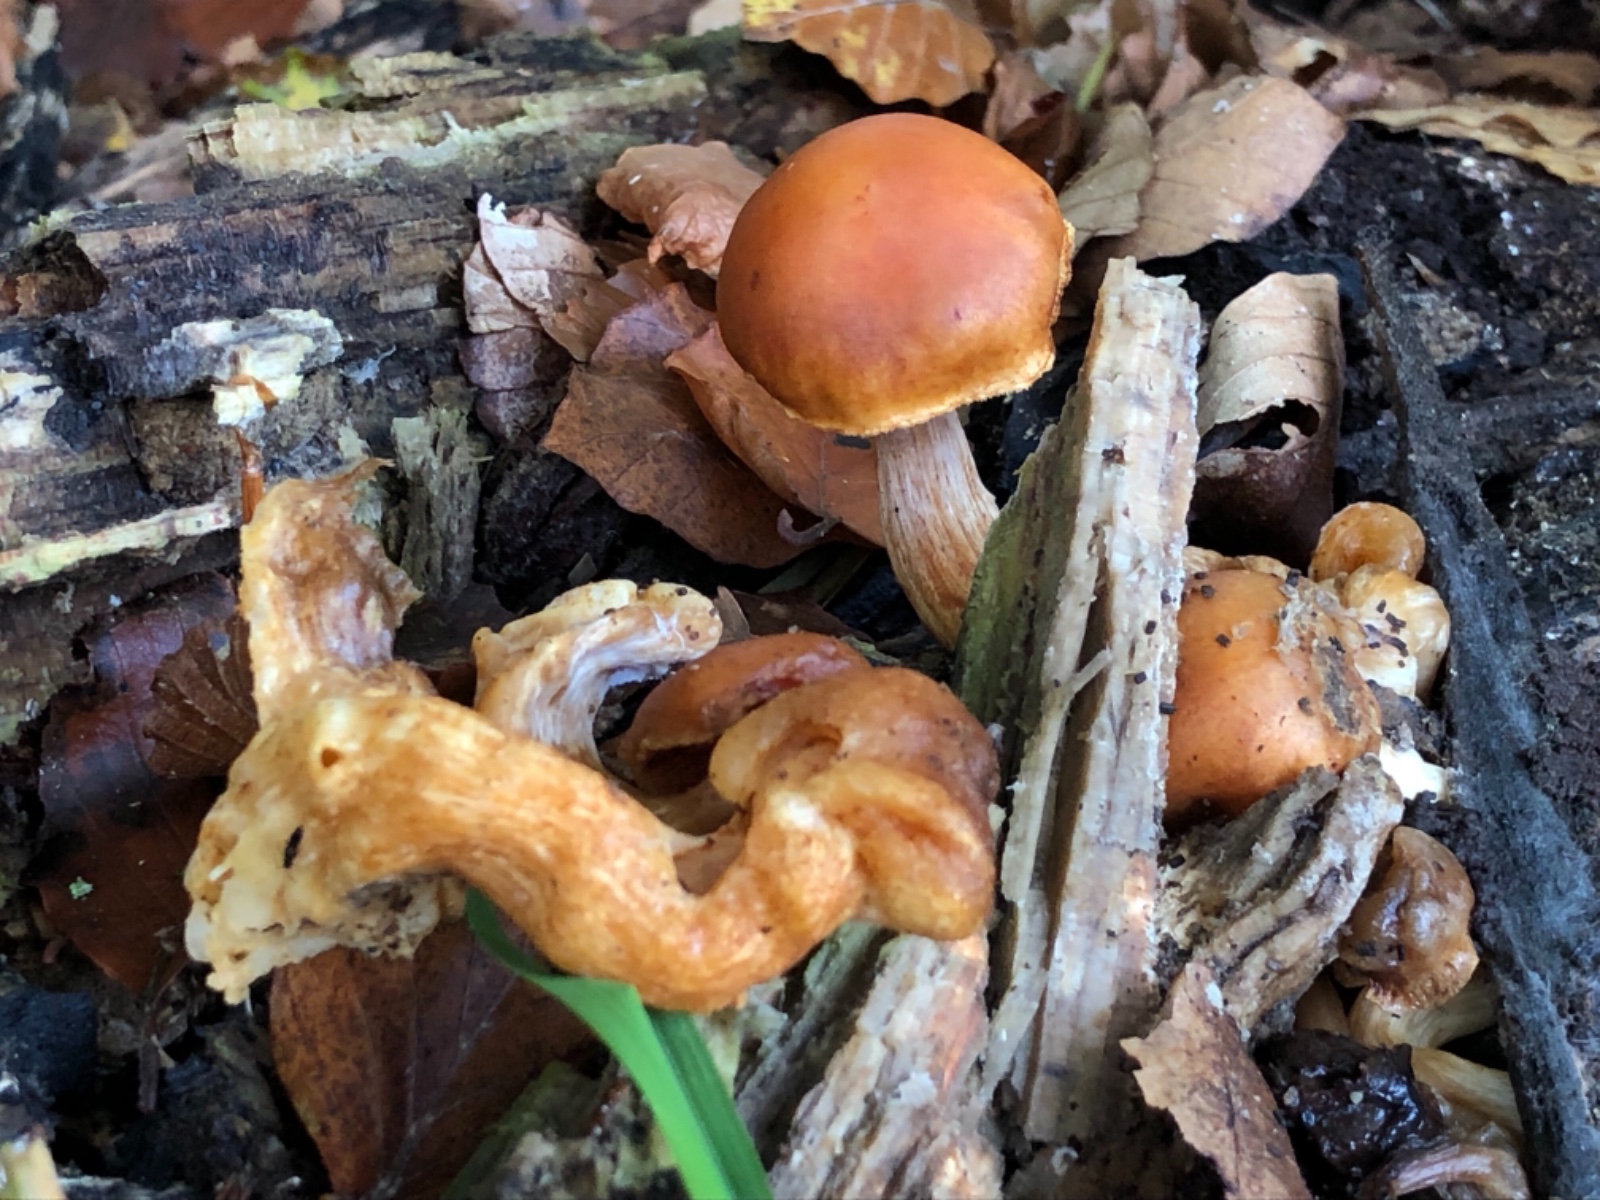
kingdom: Fungi
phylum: Basidiomycota
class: Agaricomycetes
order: Agaricales
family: Hymenogastraceae
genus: Gymnopilus
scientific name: Gymnopilus penetrans
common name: plettet flammehat
